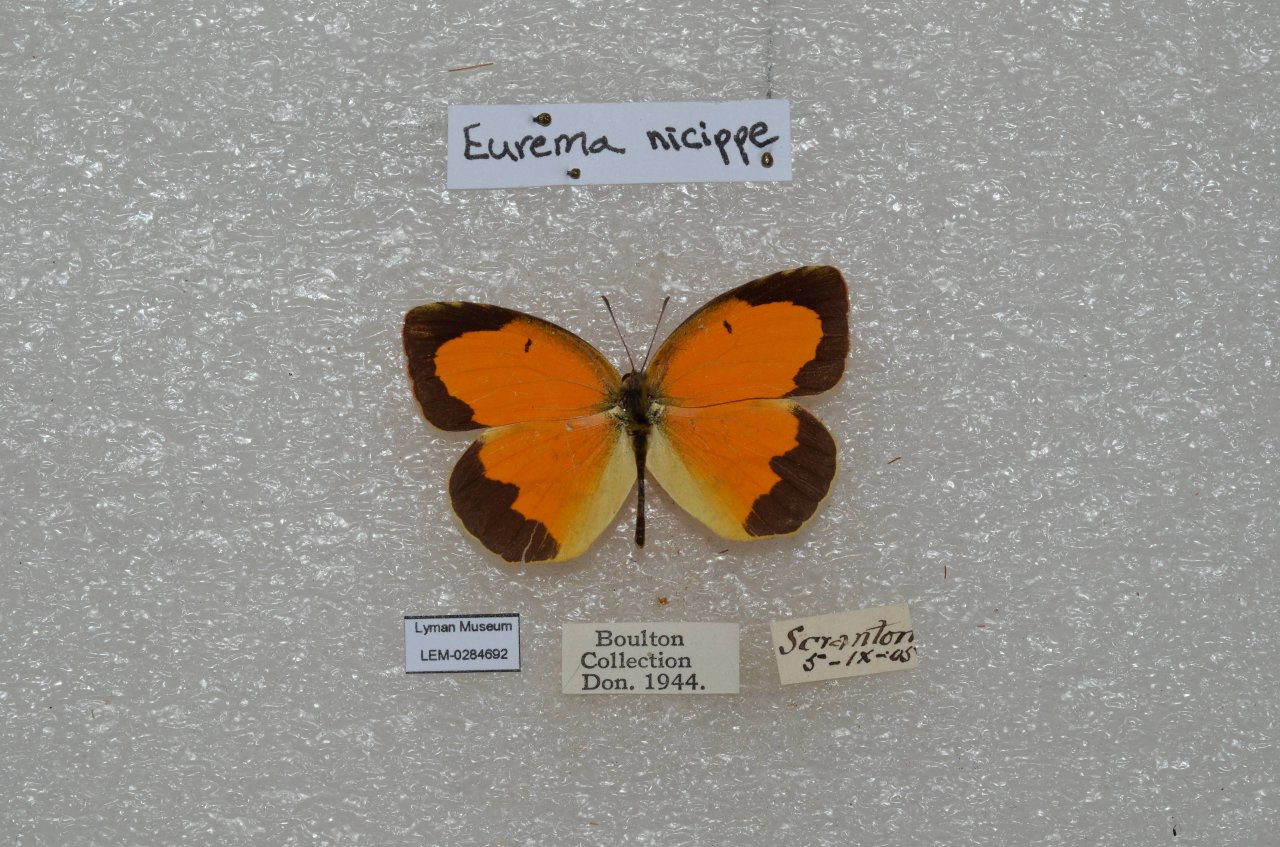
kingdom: Animalia
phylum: Arthropoda
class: Insecta
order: Lepidoptera
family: Pieridae
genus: Abaeis
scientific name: Abaeis nicippe
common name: Sleepy Orange
